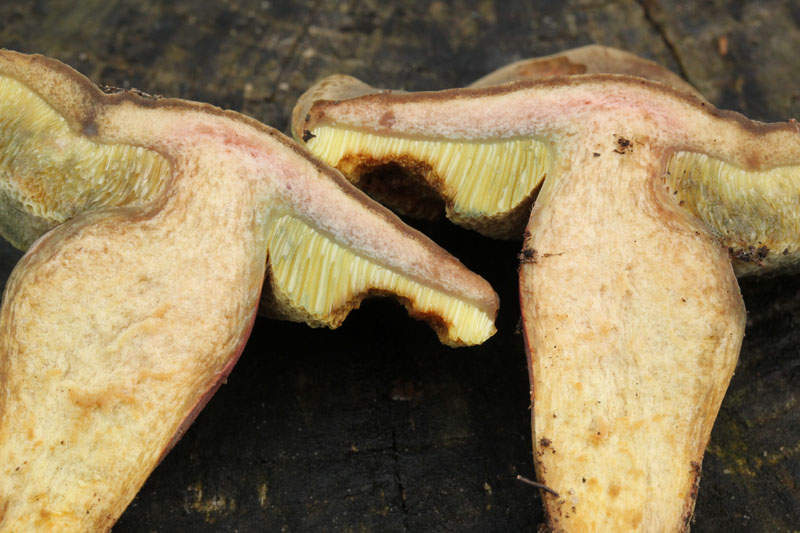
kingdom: Fungi
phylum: Basidiomycota
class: Agaricomycetes
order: Boletales
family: Boletaceae
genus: Hortiboletus
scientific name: Hortiboletus bubalinus
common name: aurora-rørhat
